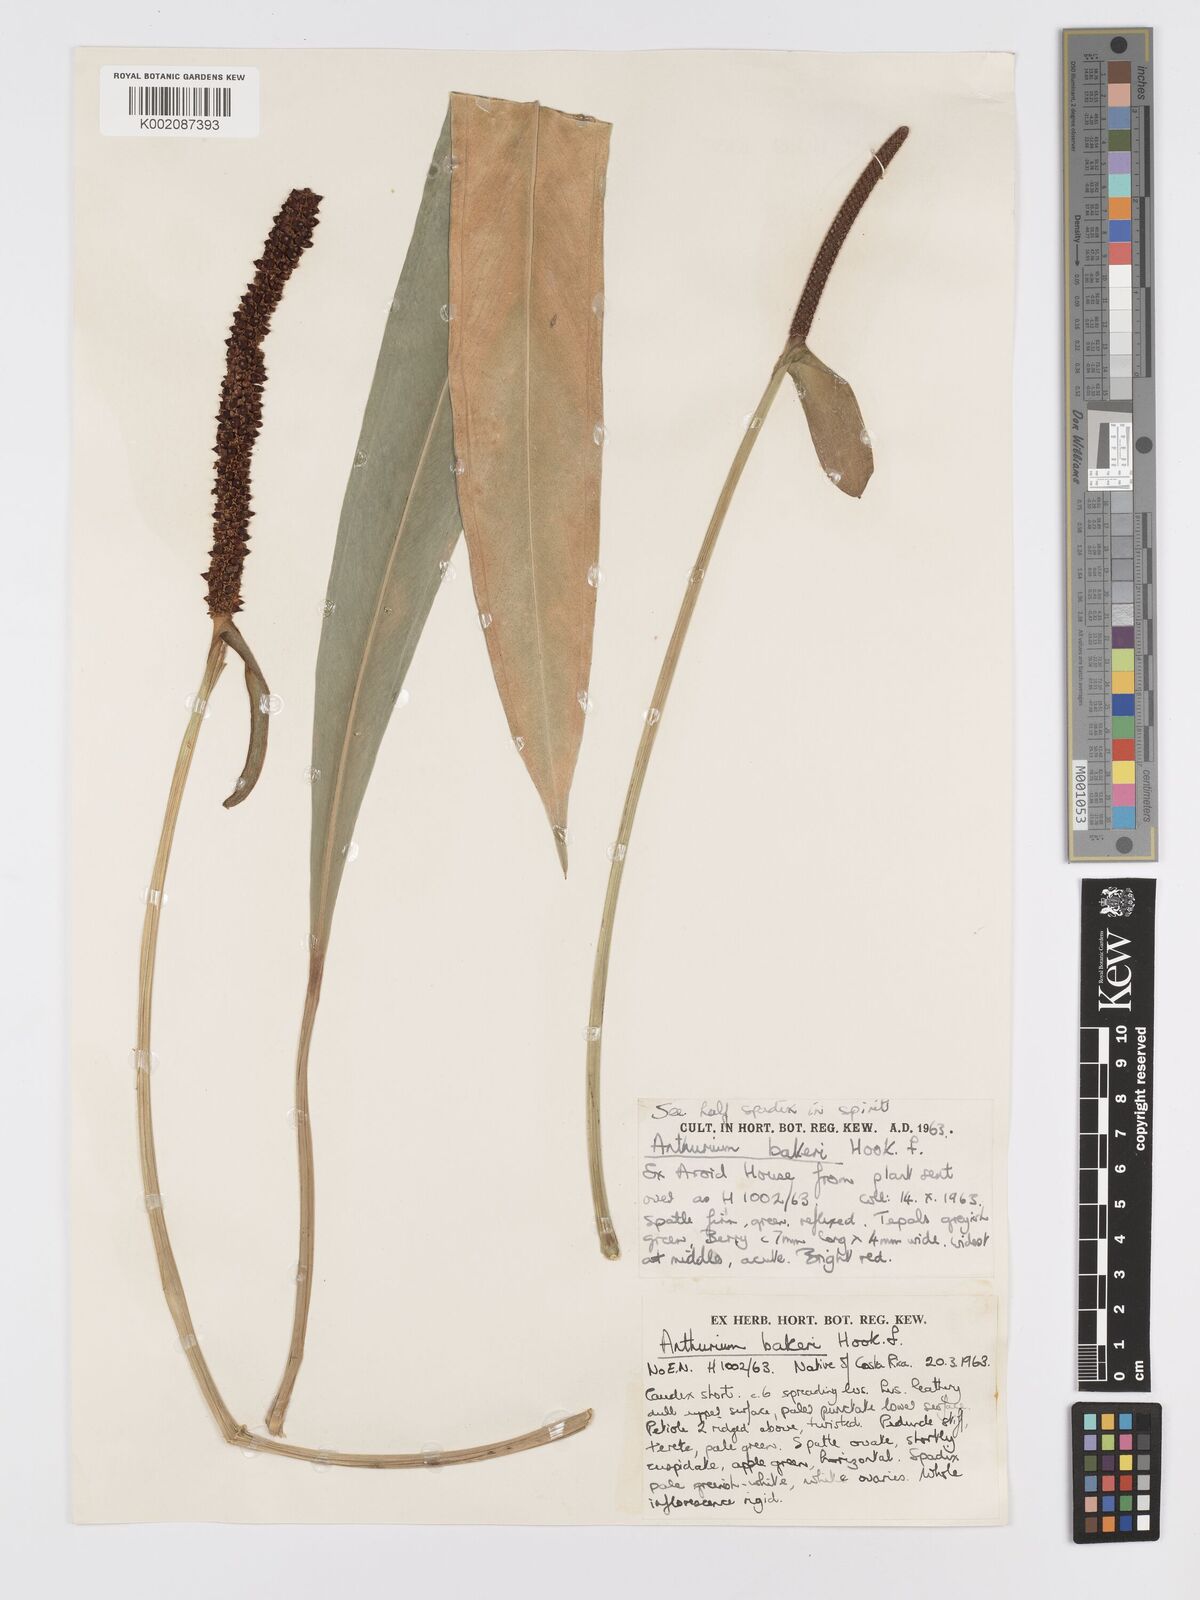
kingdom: Plantae
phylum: Tracheophyta
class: Liliopsida
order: Alismatales
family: Araceae
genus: Anthurium
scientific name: Anthurium bakeri
